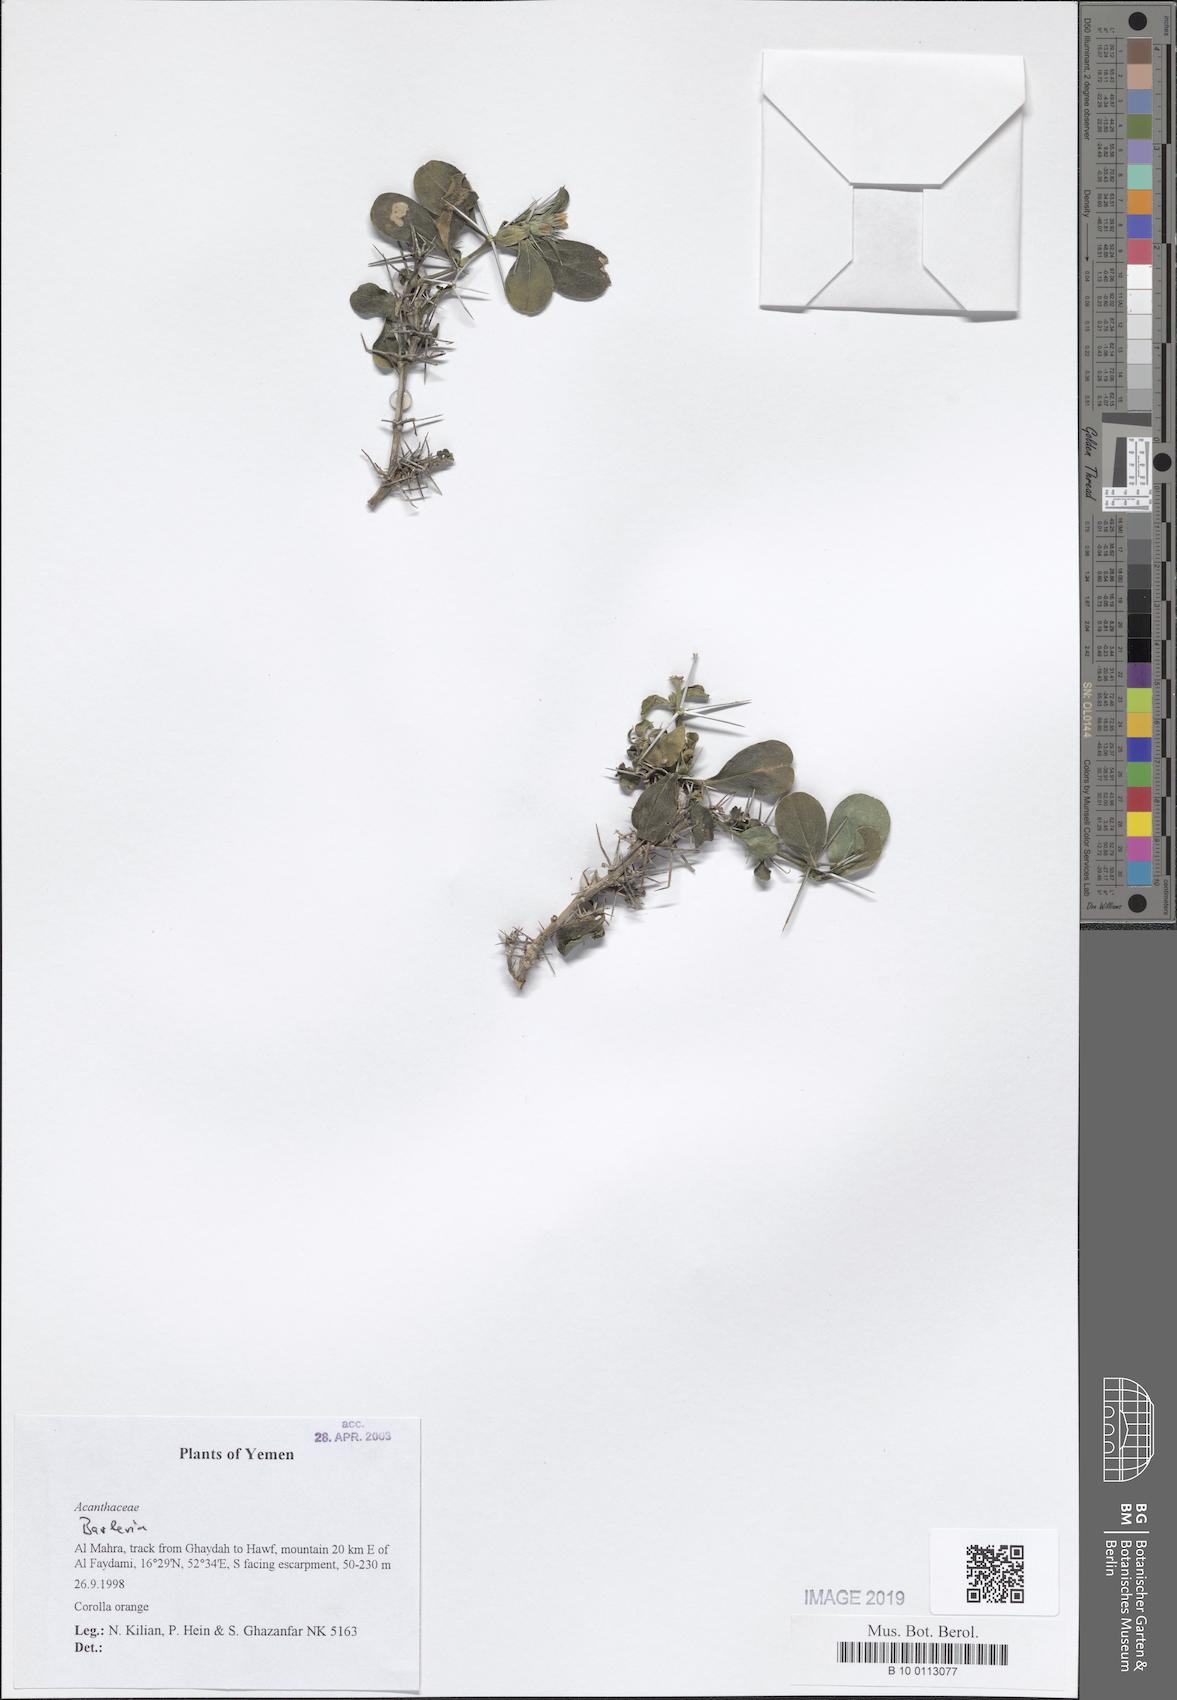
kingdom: Plantae
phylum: Tracheophyta
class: Magnoliopsida
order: Lamiales
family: Acanthaceae
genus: Barleria
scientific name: Barleria
